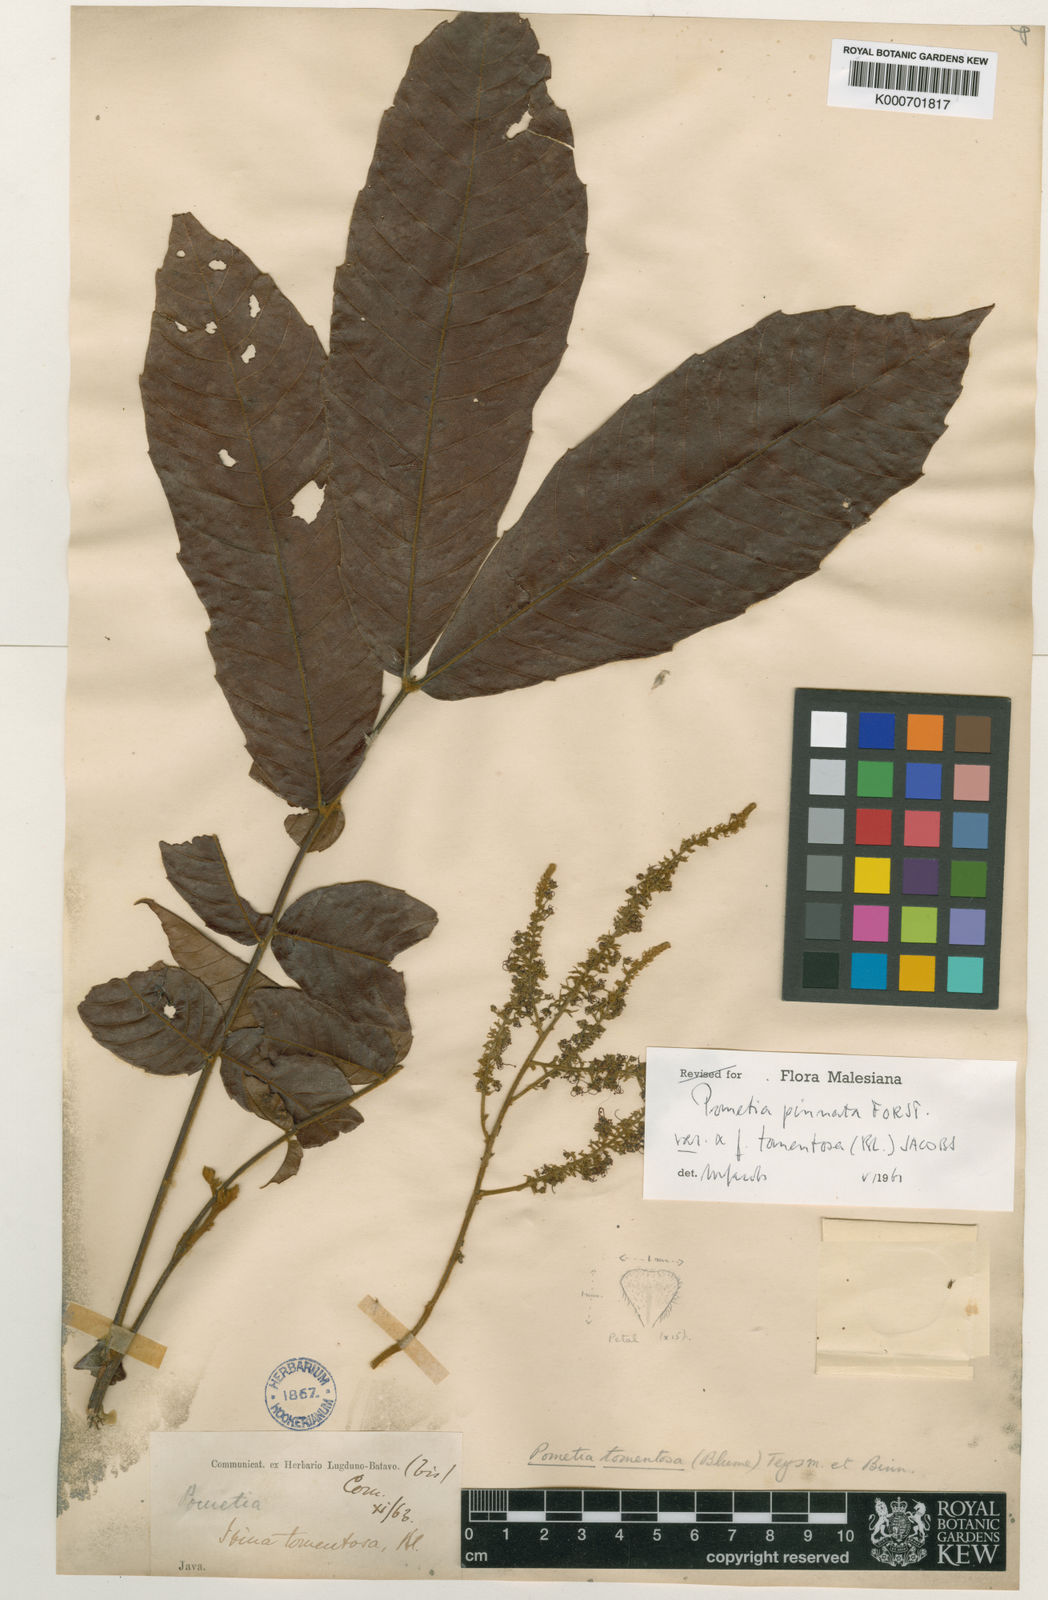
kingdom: Plantae
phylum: Tracheophyta
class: Magnoliopsida
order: Sapindales
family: Sapindaceae
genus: Pometia
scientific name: Pometia pinnata
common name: Oceanic lychee
